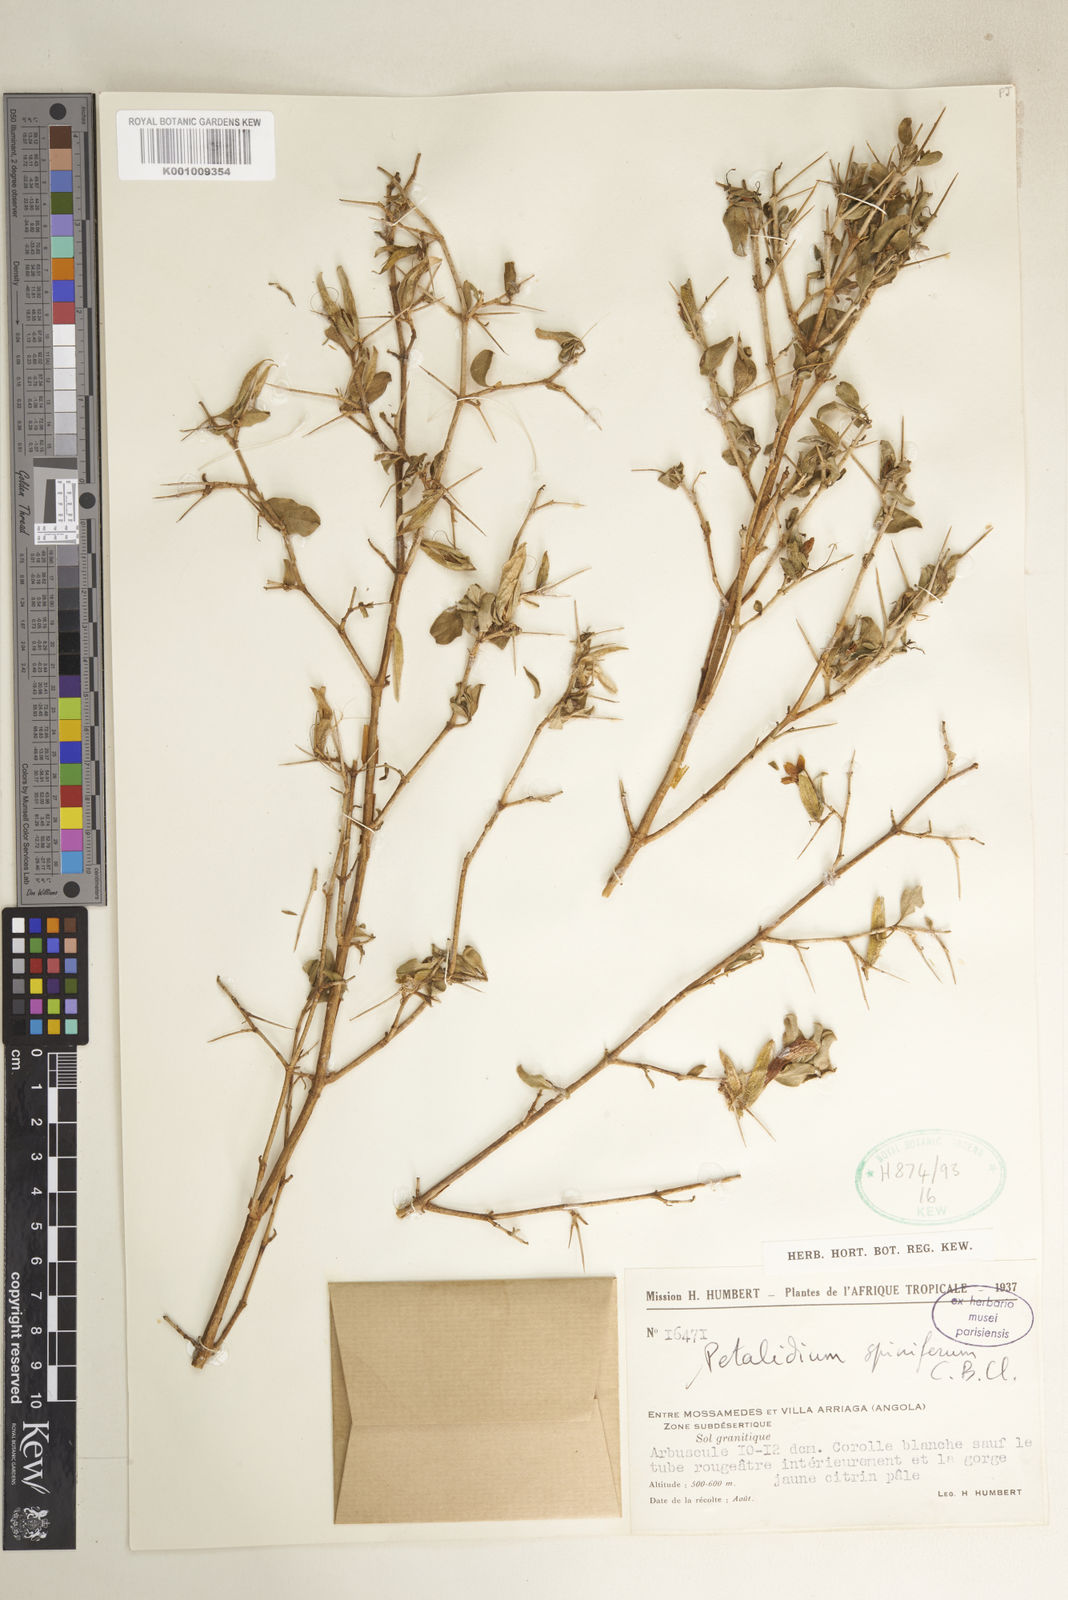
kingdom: Plantae
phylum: Tracheophyta
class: Magnoliopsida
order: Lamiales
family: Acanthaceae
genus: Petalidium
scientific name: Petalidium spiniferum
